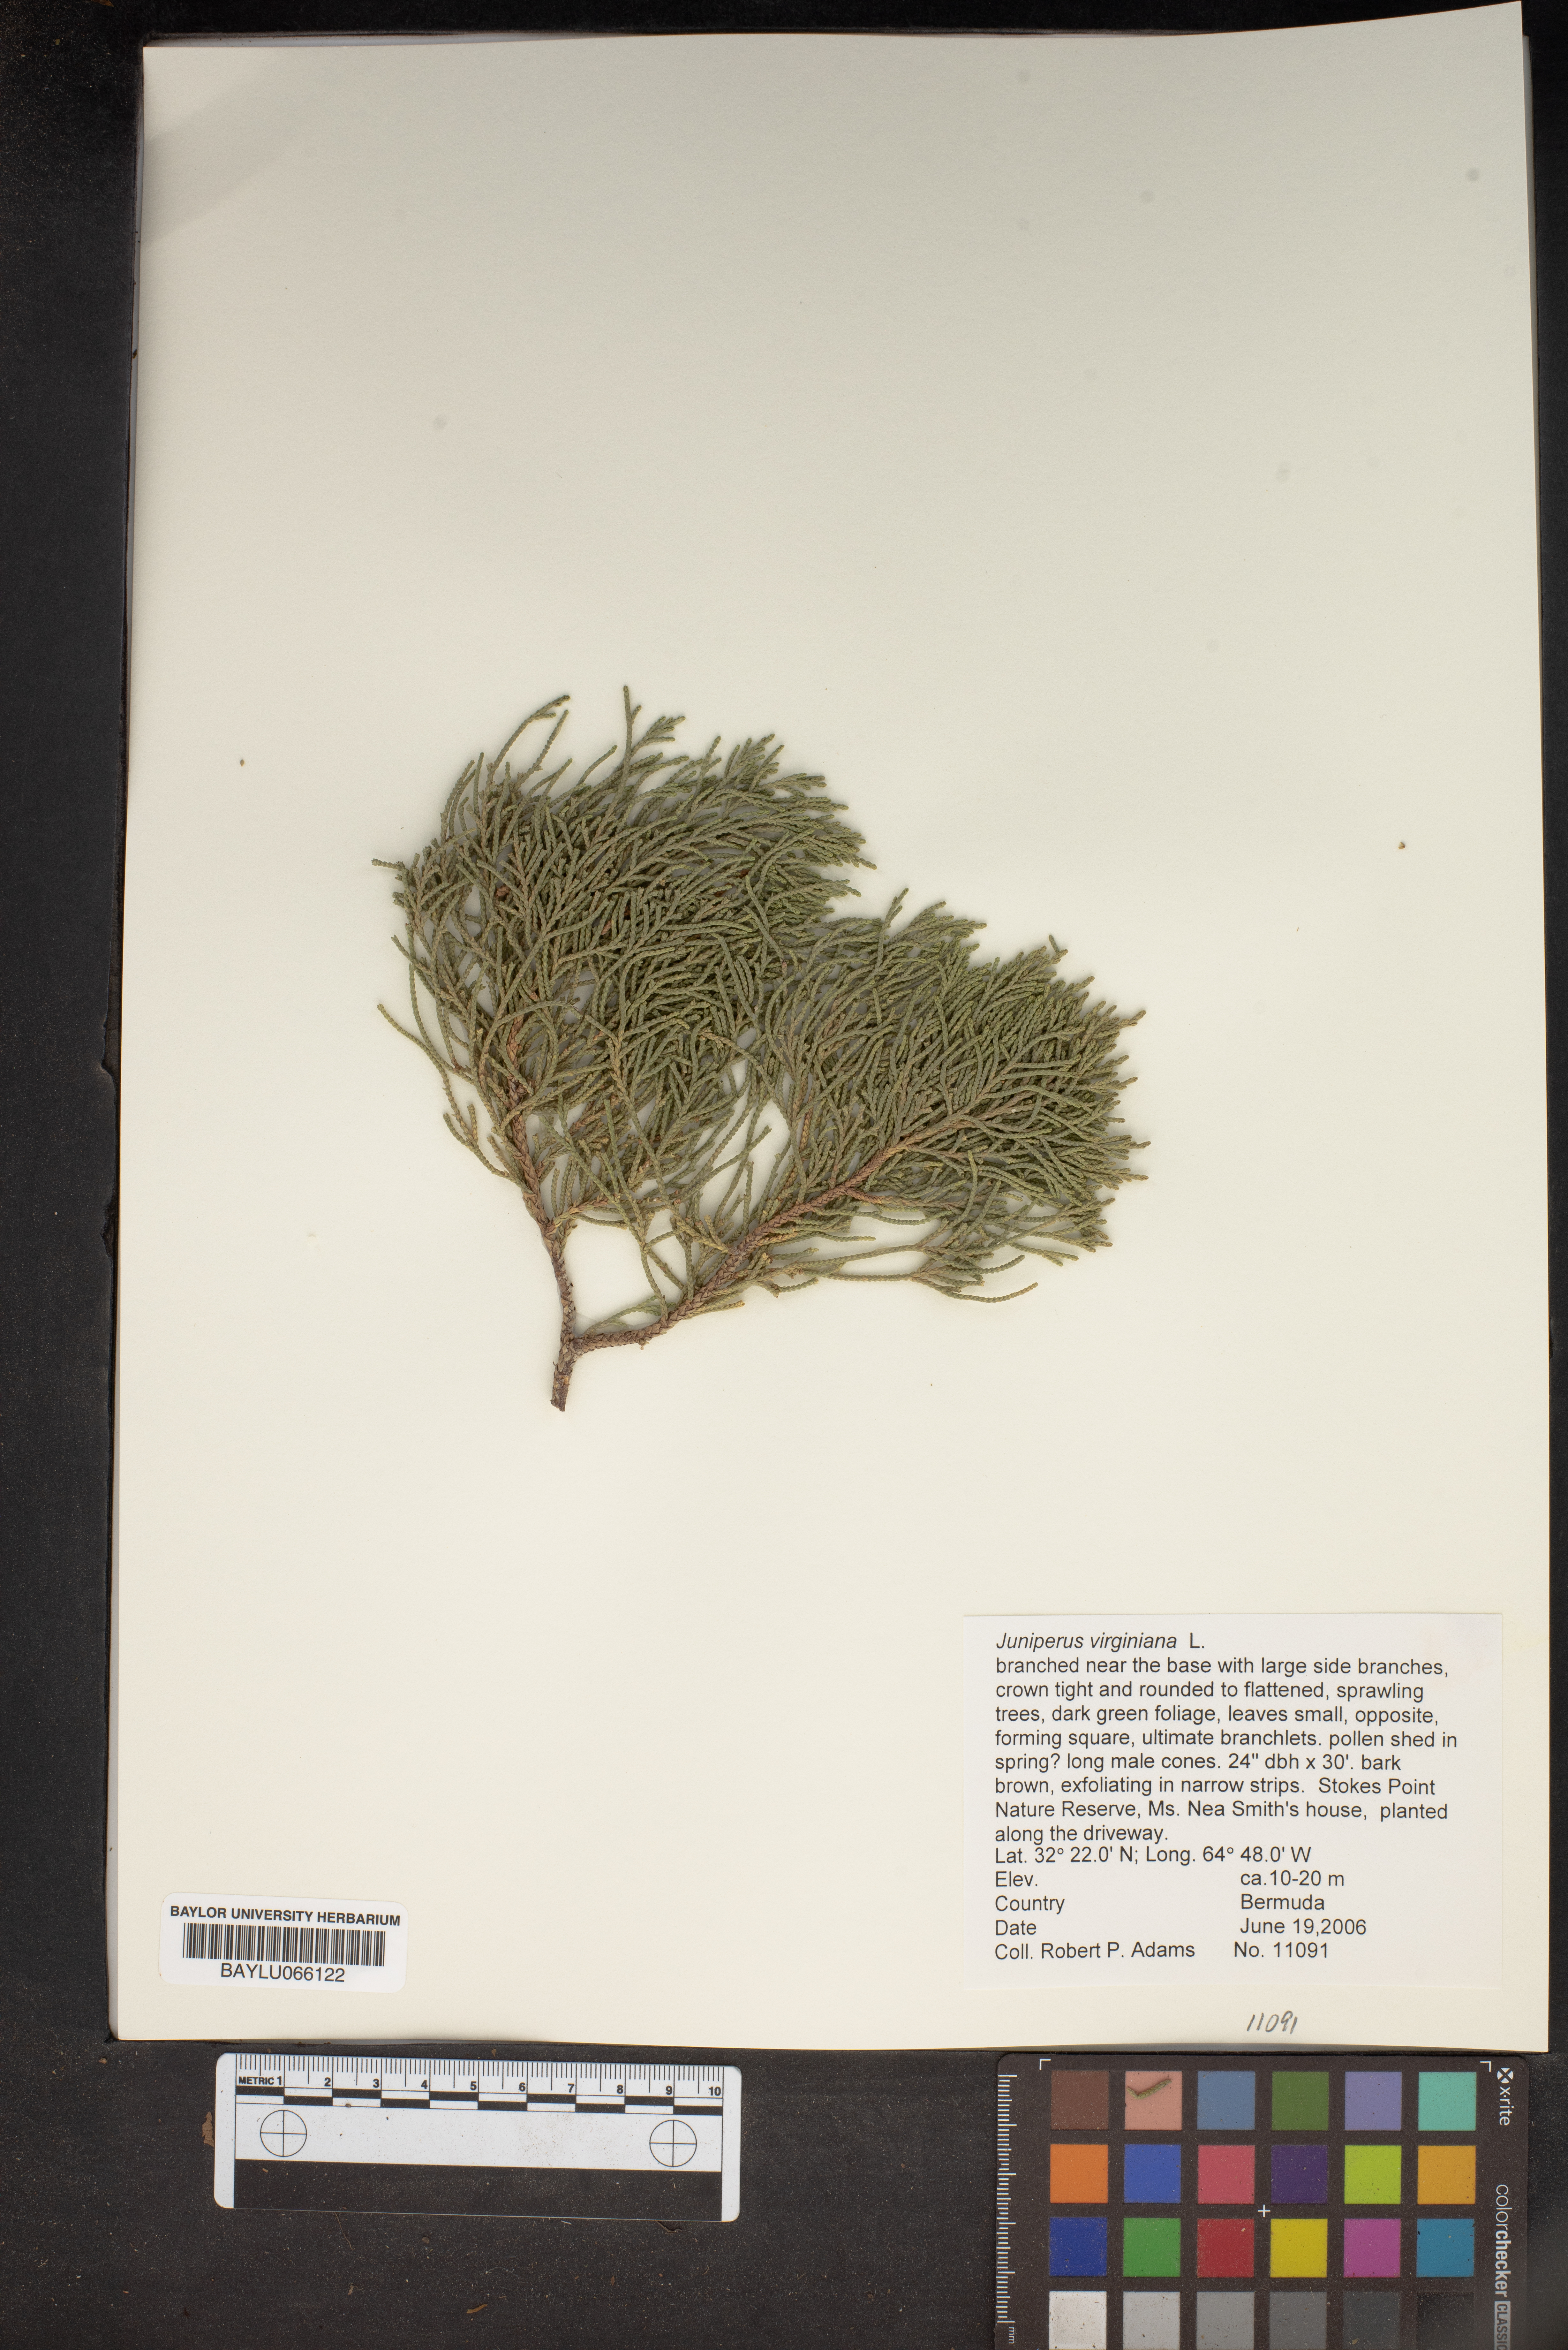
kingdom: Plantae
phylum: Tracheophyta
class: Pinopsida
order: Pinales
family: Cupressaceae
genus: Juniperus
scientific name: Juniperus virginiana
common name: Red juniper
